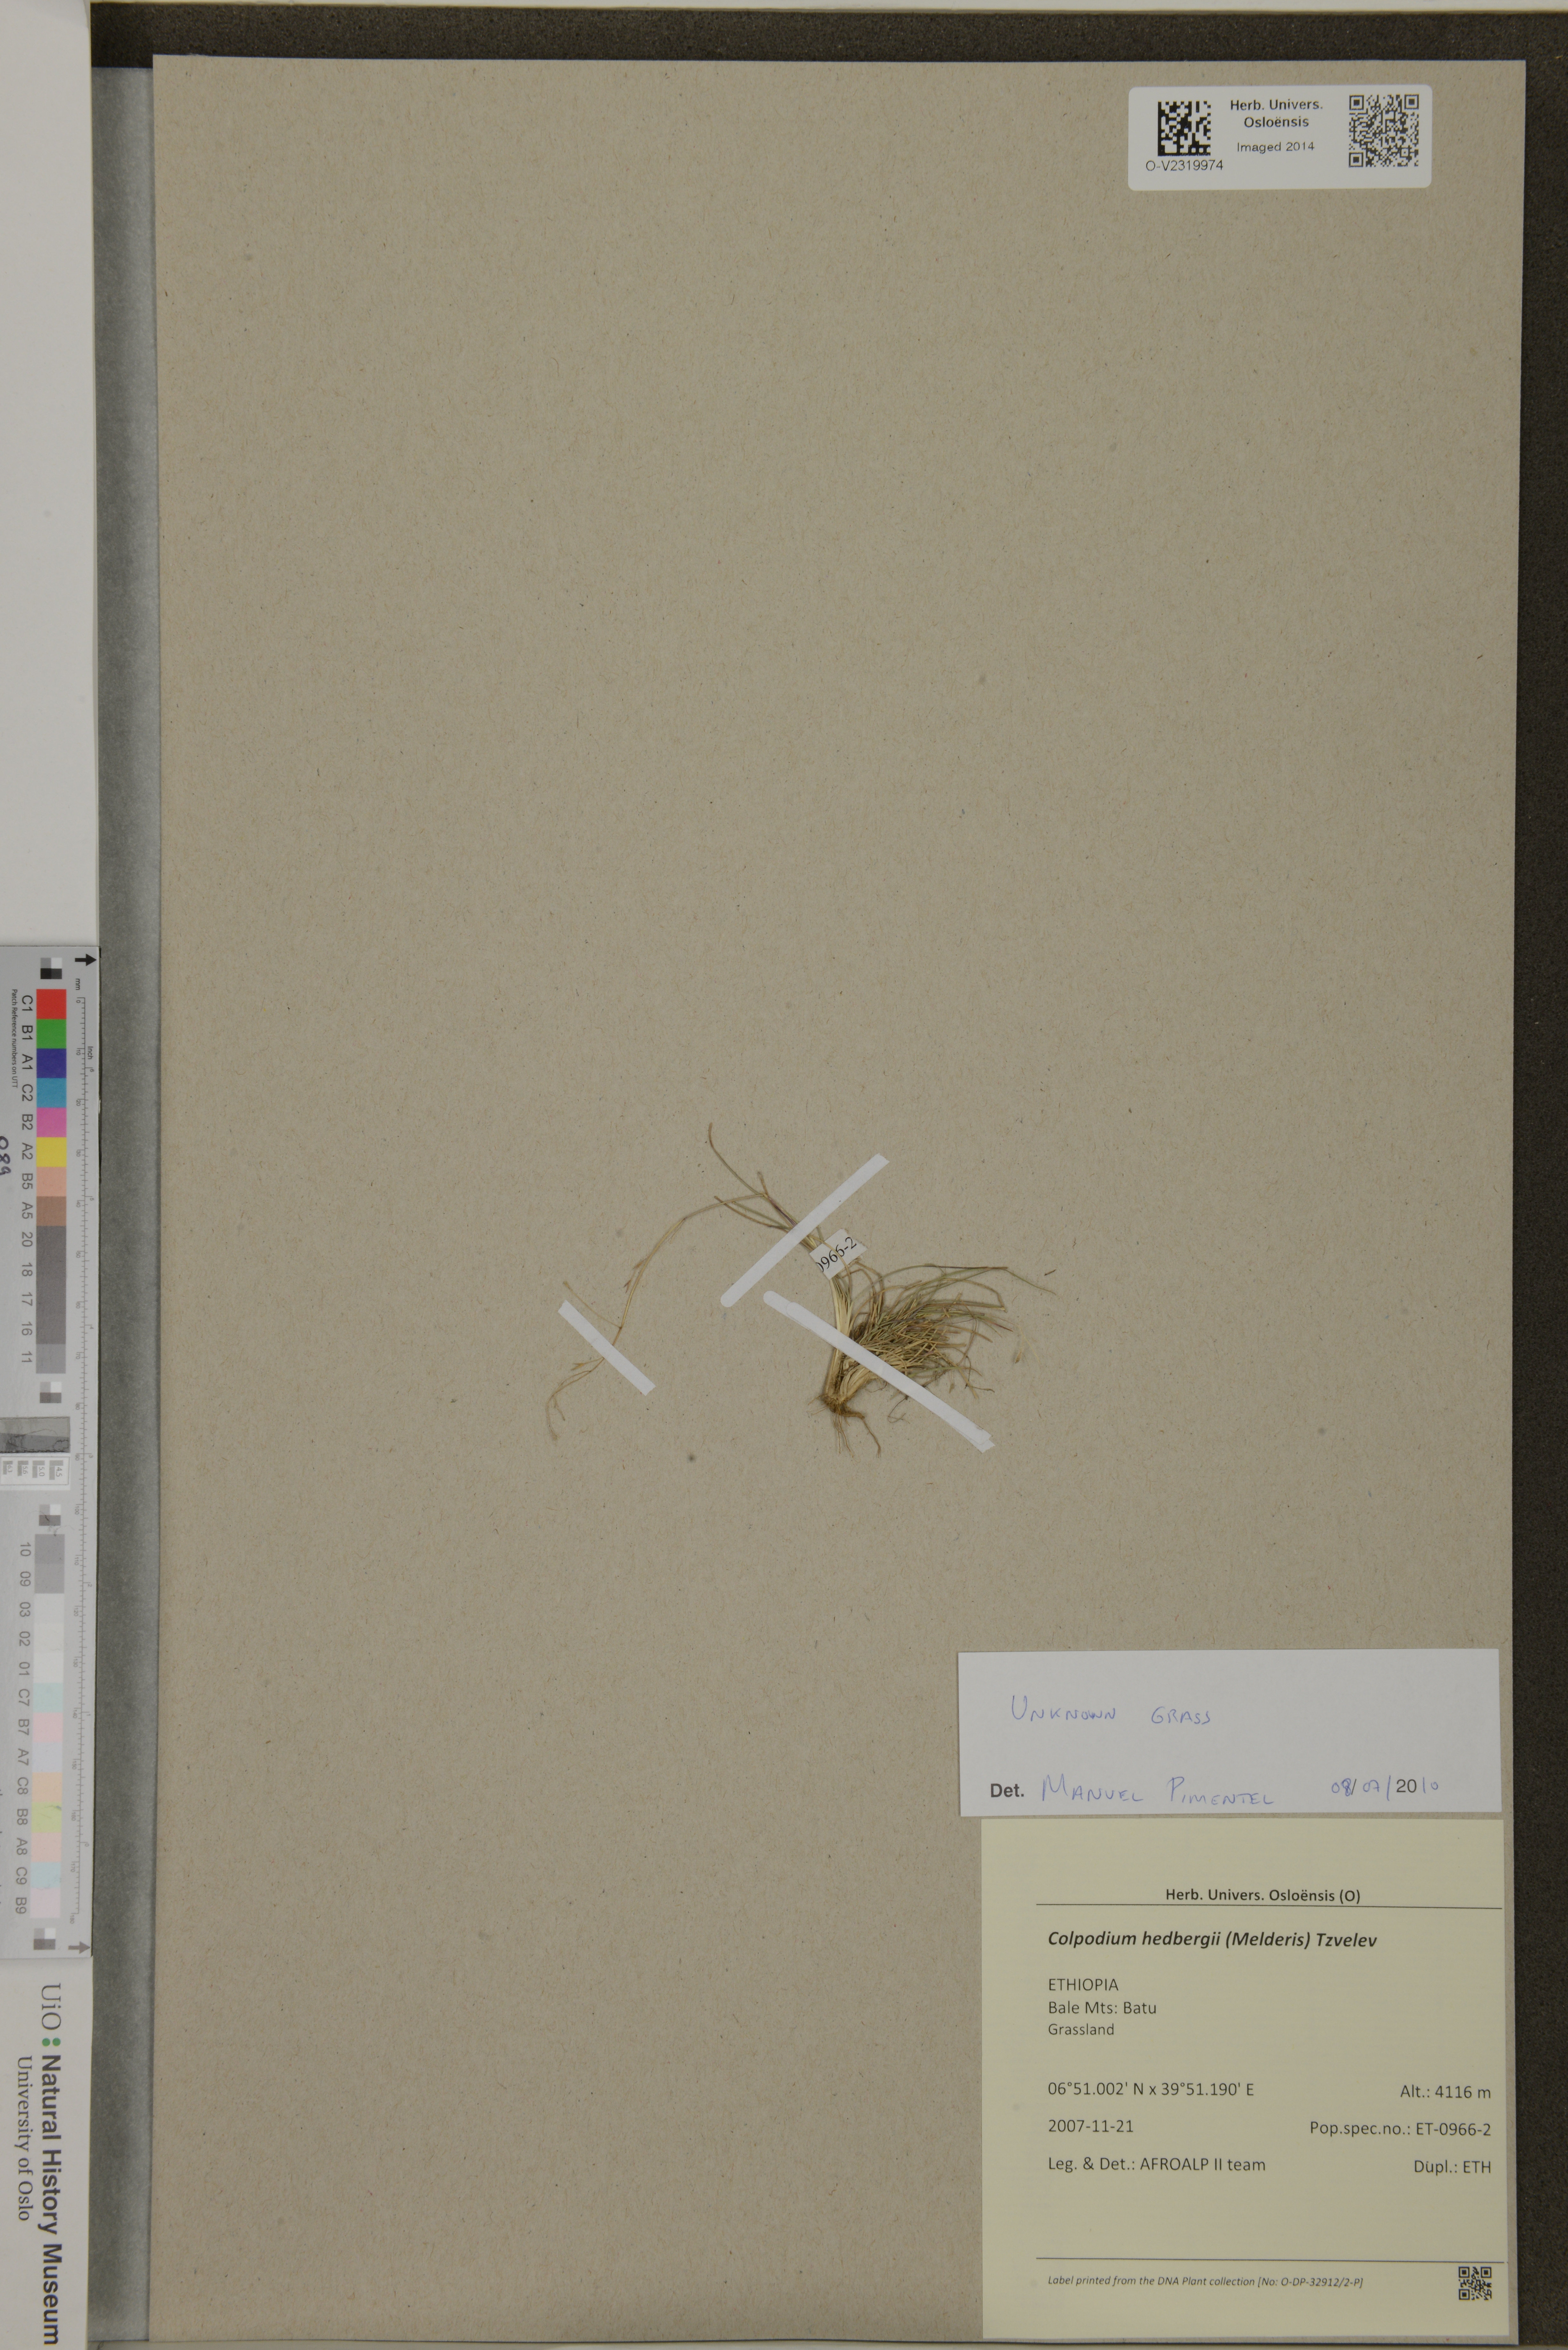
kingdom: Plantae
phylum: Tracheophyta
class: Liliopsida
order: Poales
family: Poaceae
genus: Colpodium
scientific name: Colpodium hedbergii
